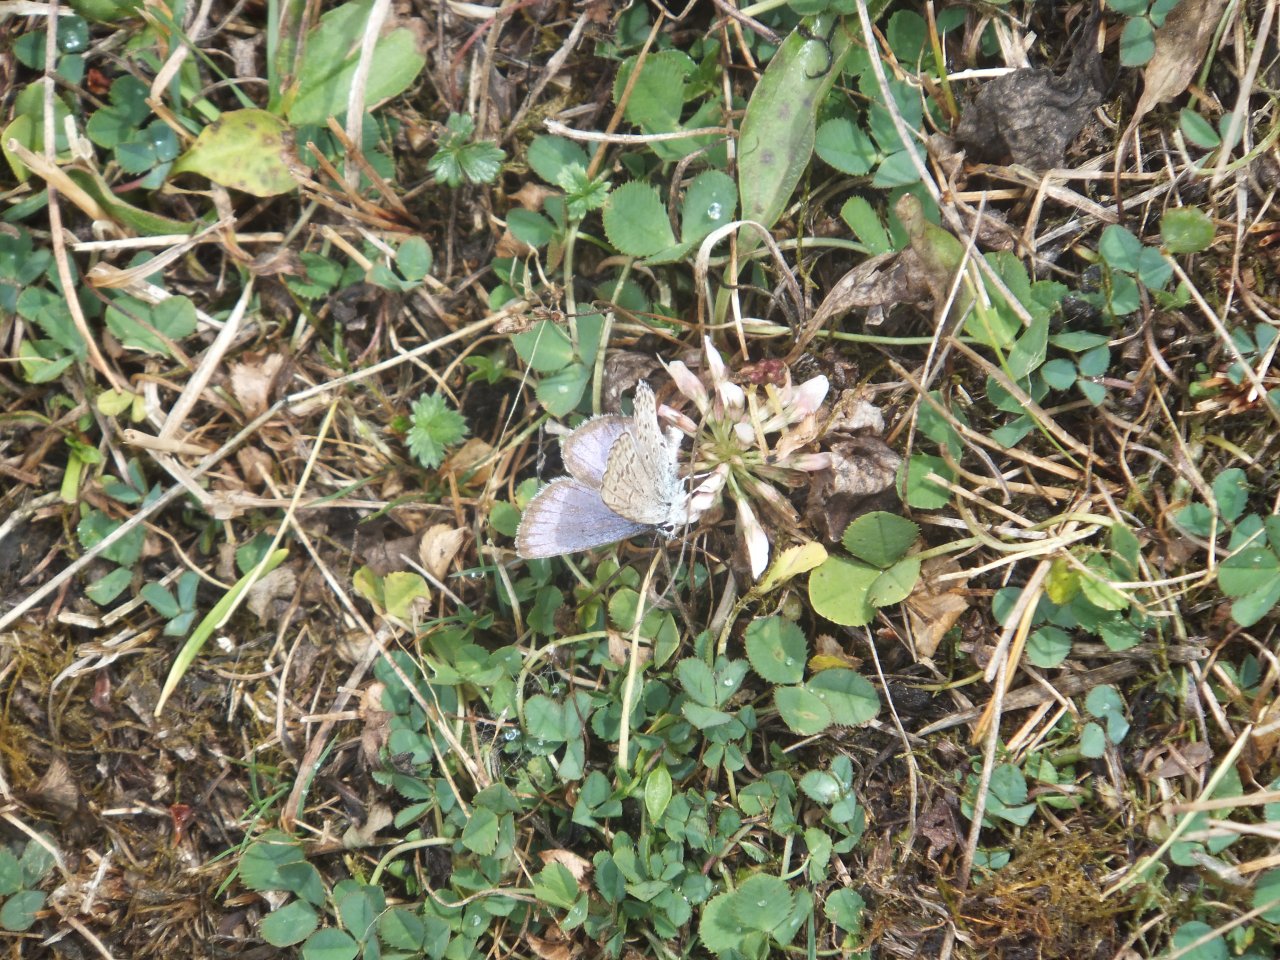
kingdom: Animalia
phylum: Arthropoda
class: Insecta
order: Lepidoptera
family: Lycaenidae
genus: Lycaeides
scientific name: Lycaeides anna
